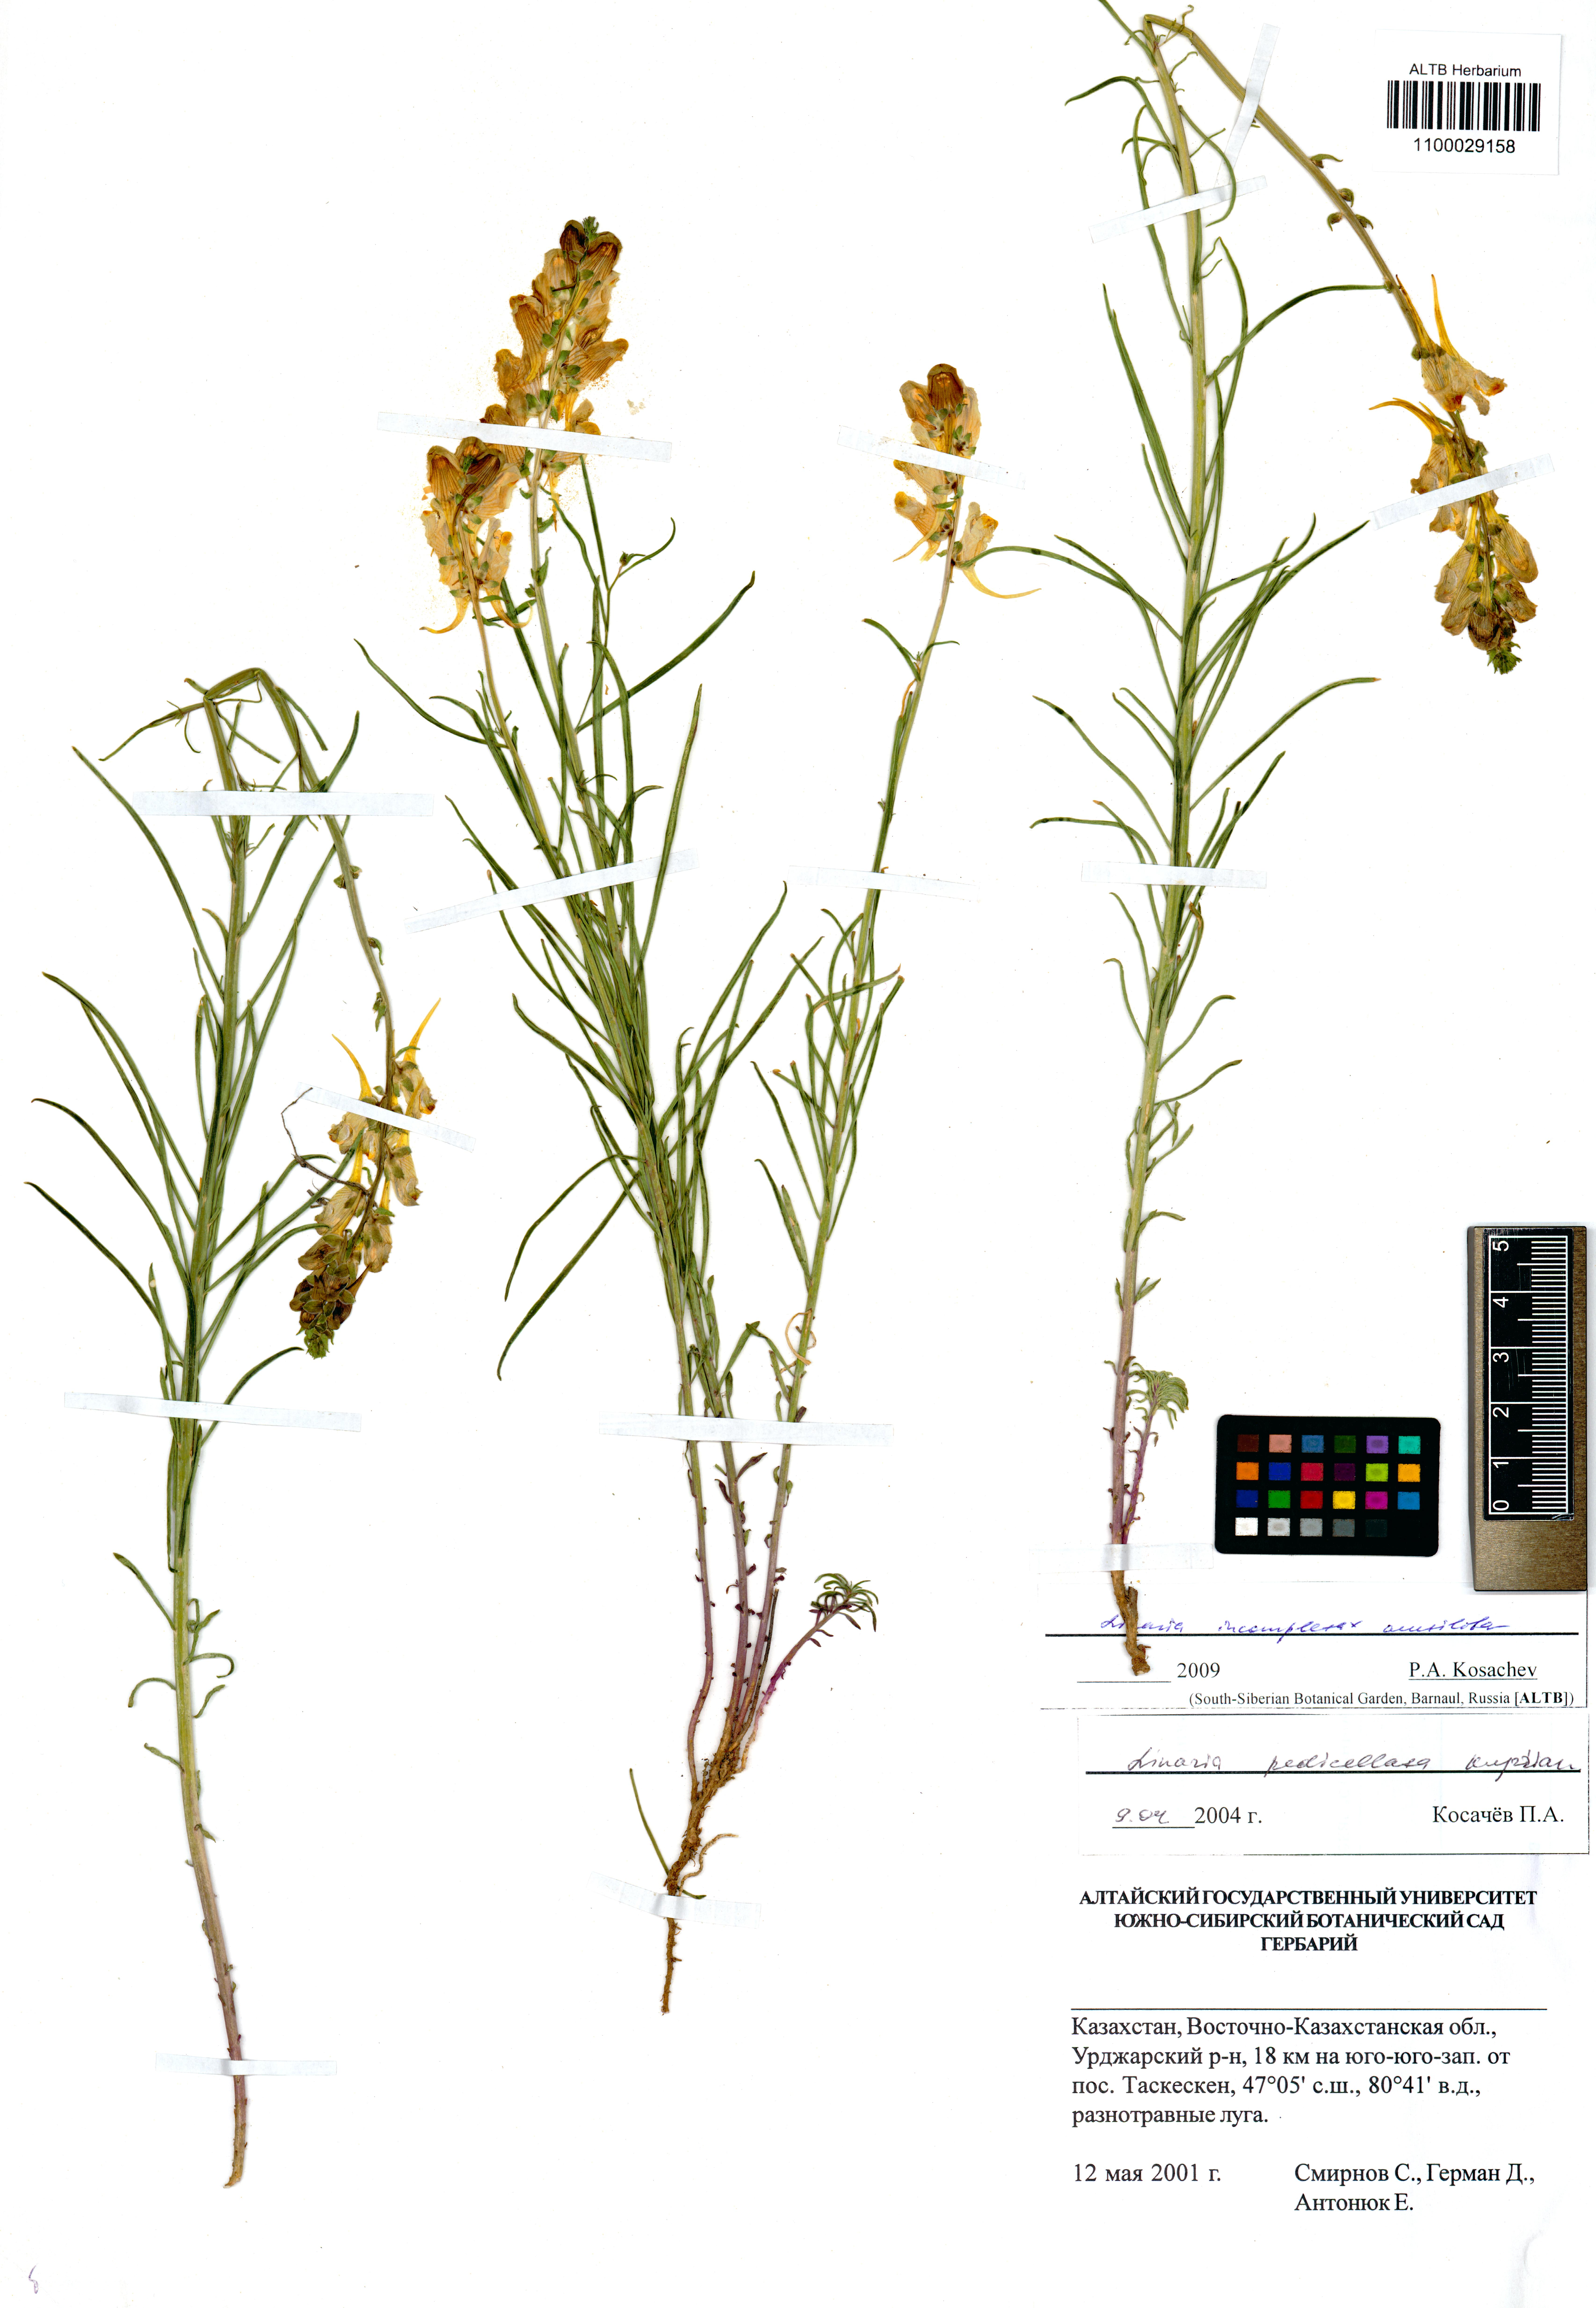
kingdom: Plantae
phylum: Tracheophyta
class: Magnoliopsida
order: Lamiales
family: Plantaginaceae
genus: Linaria
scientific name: Linaria incompleta
